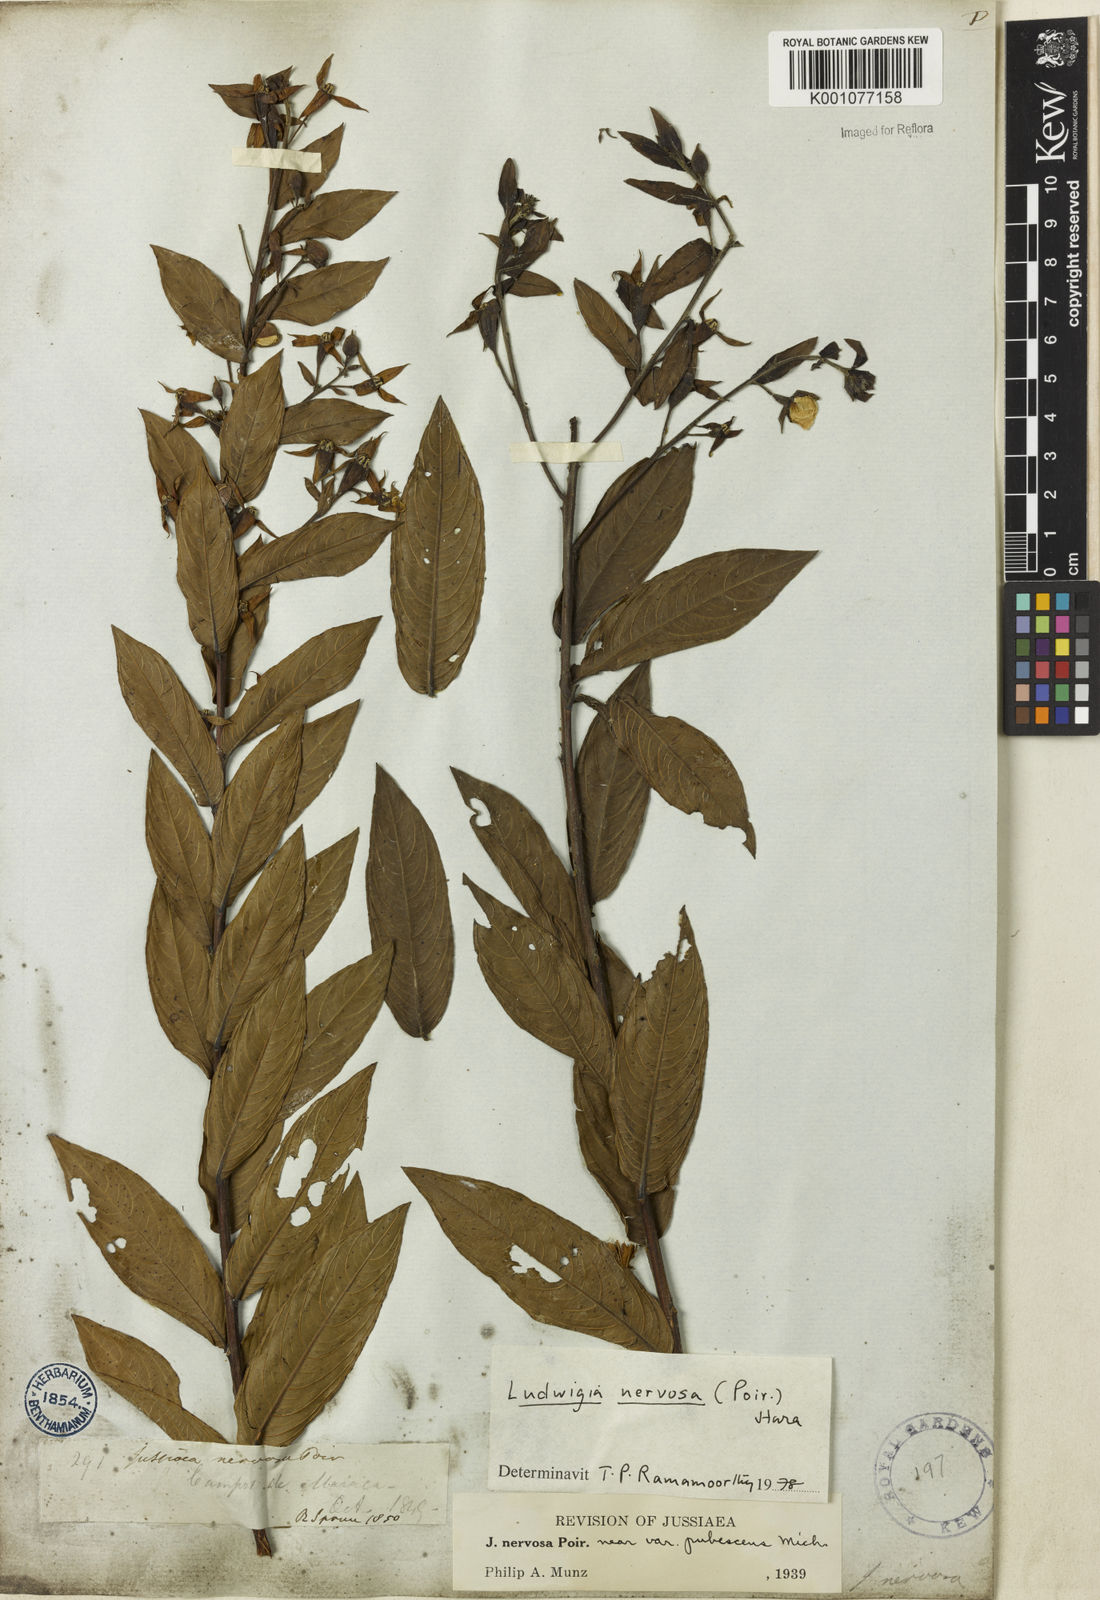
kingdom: Plantae
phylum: Tracheophyta
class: Magnoliopsida
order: Myrtales
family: Onagraceae
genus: Ludwigia
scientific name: Ludwigia nervosa
